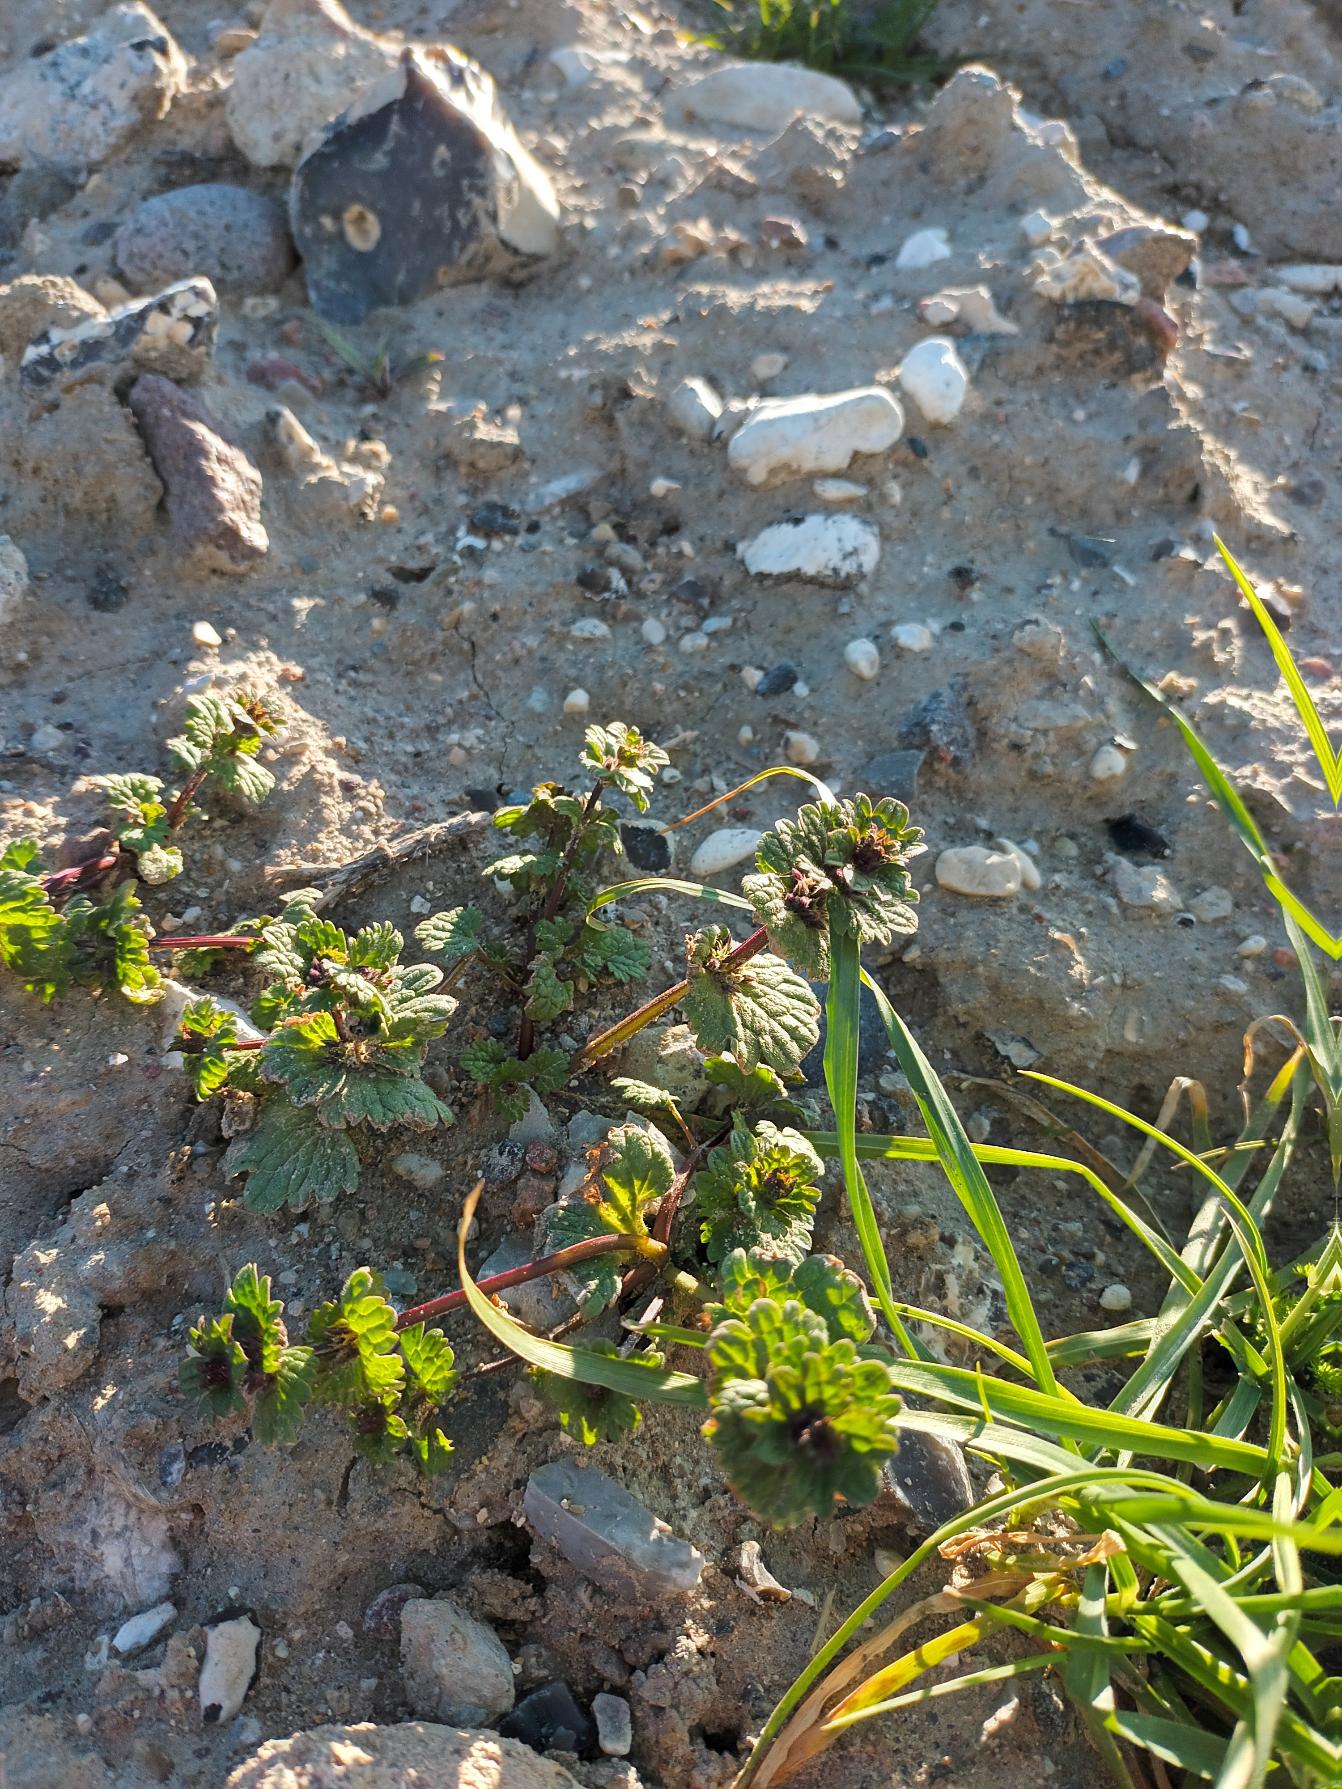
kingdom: Plantae
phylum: Tracheophyta
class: Magnoliopsida
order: Lamiales
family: Lamiaceae
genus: Lamium
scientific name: Lamium amplexicaule
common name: Liden tvetand
